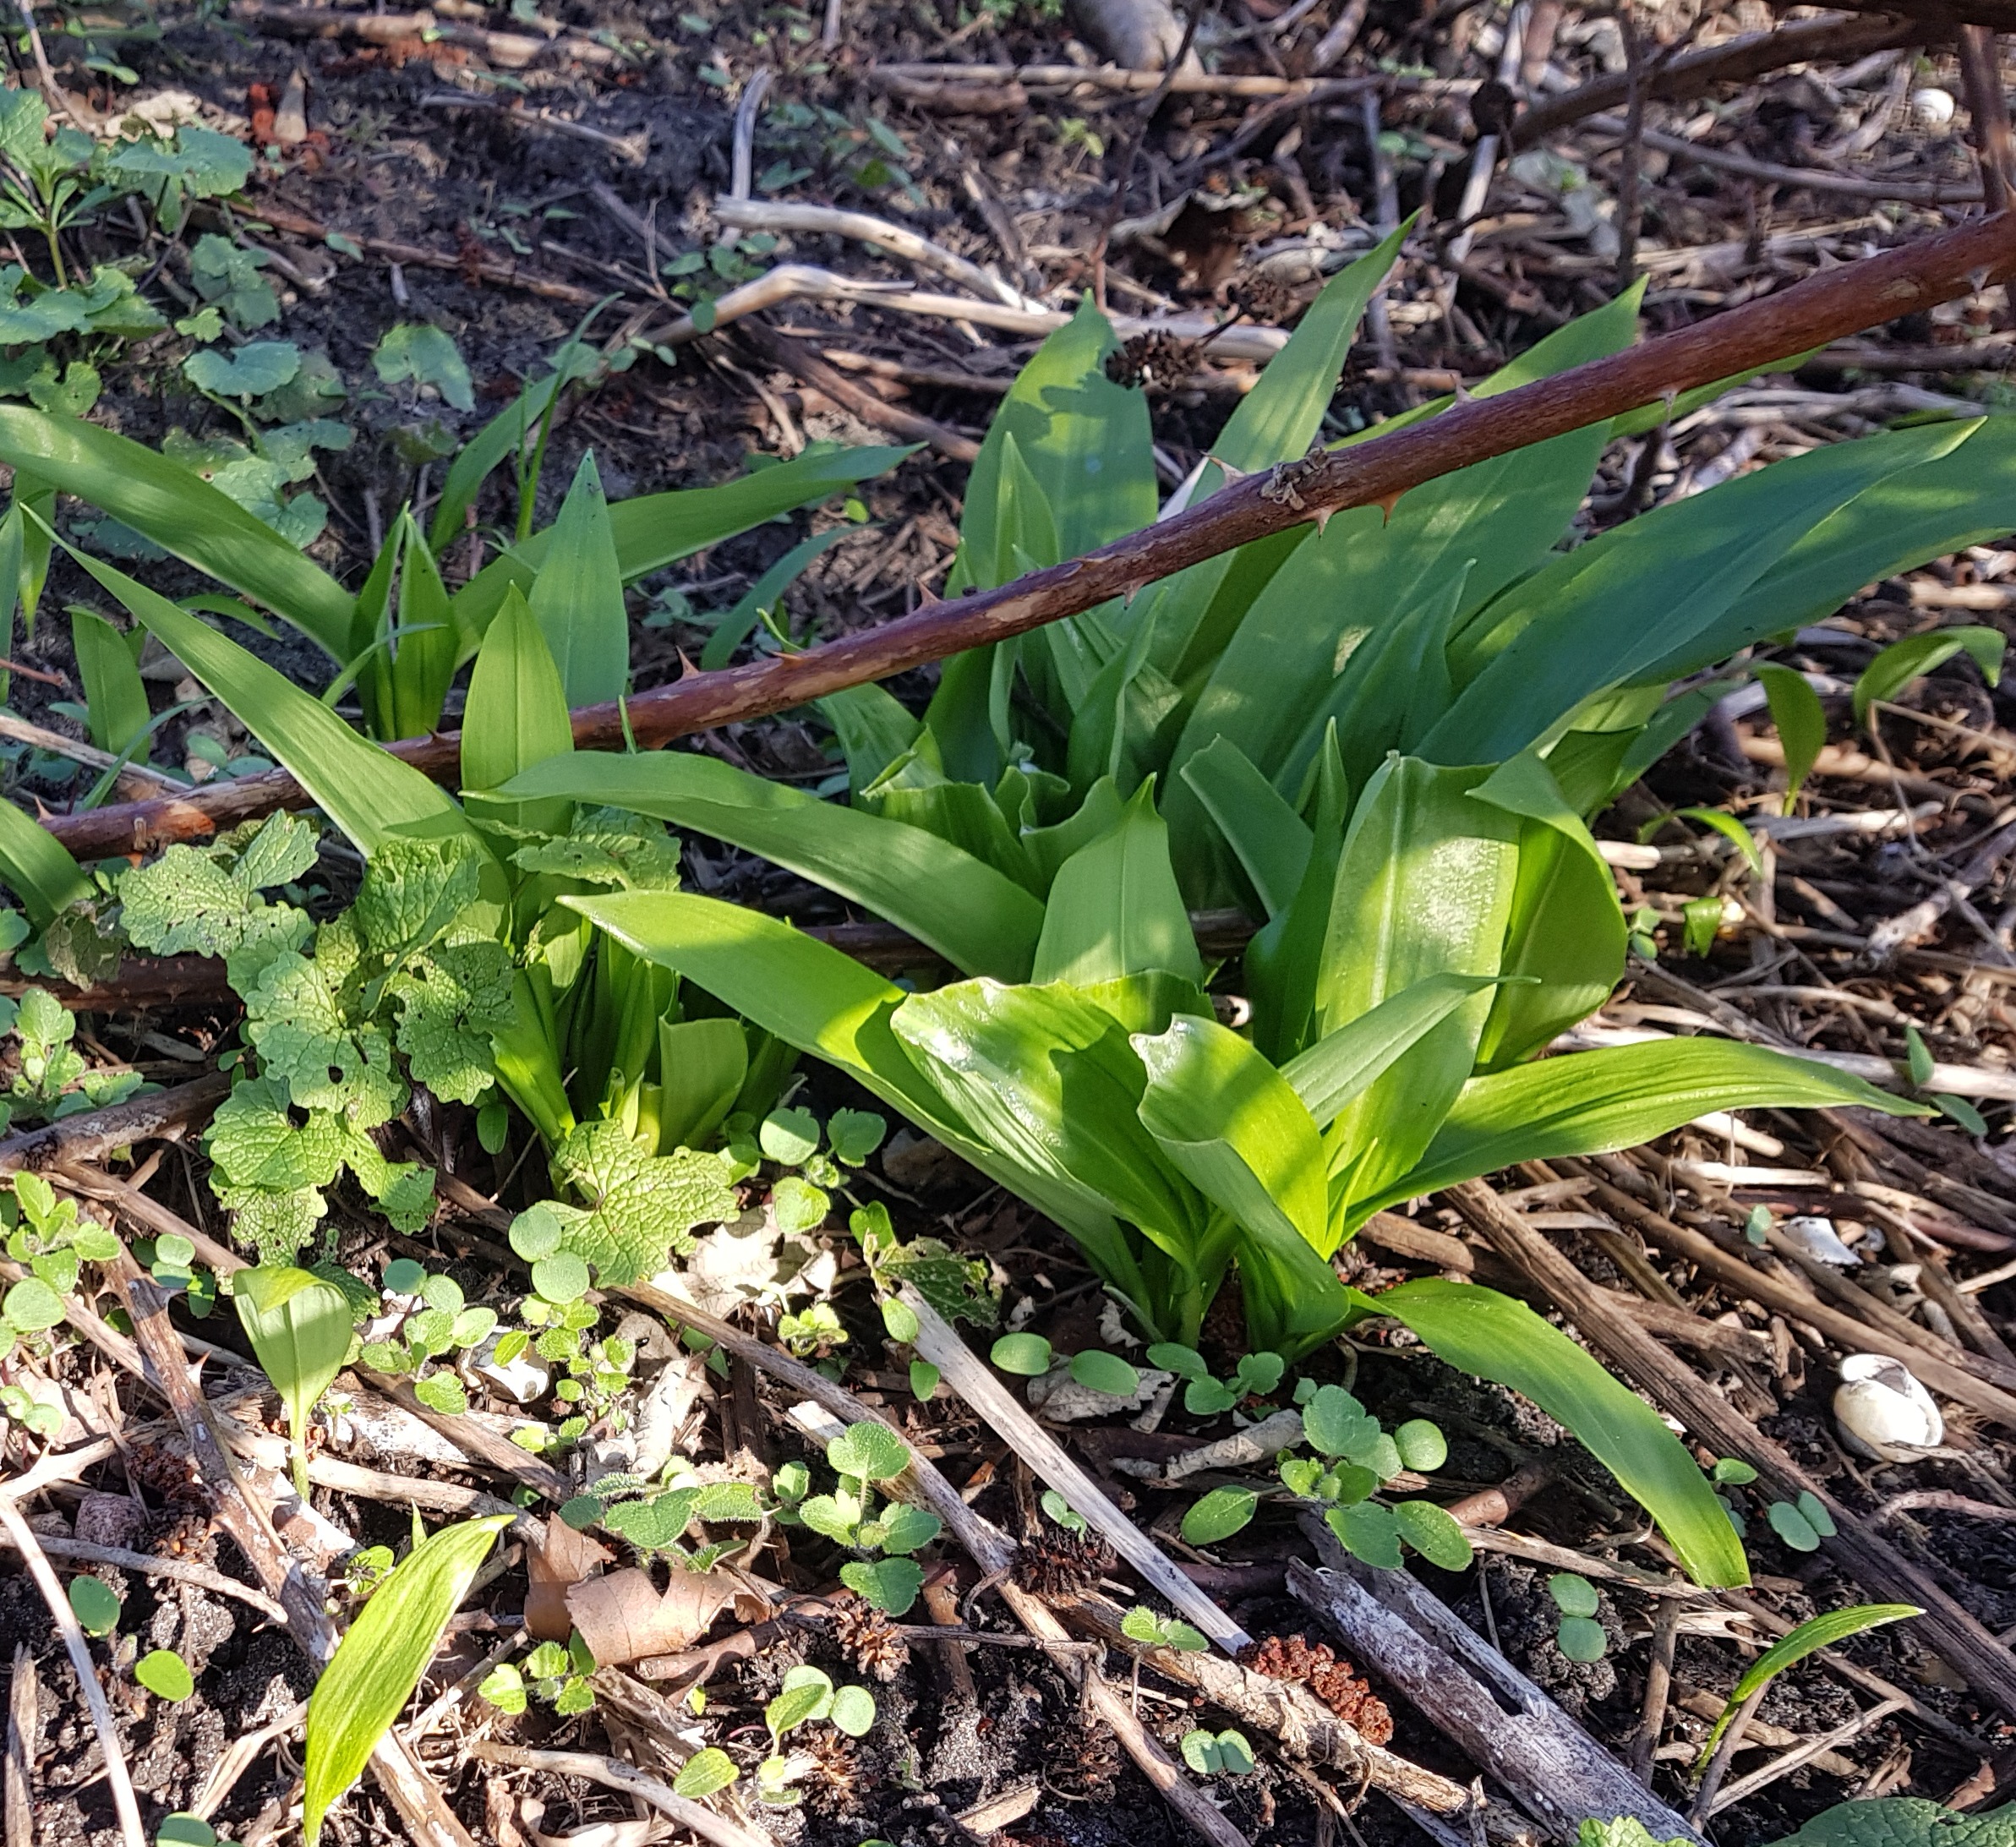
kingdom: Plantae
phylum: Tracheophyta
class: Liliopsida
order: Asparagales
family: Amaryllidaceae
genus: Allium
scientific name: Allium ursinum
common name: Rams-løg
